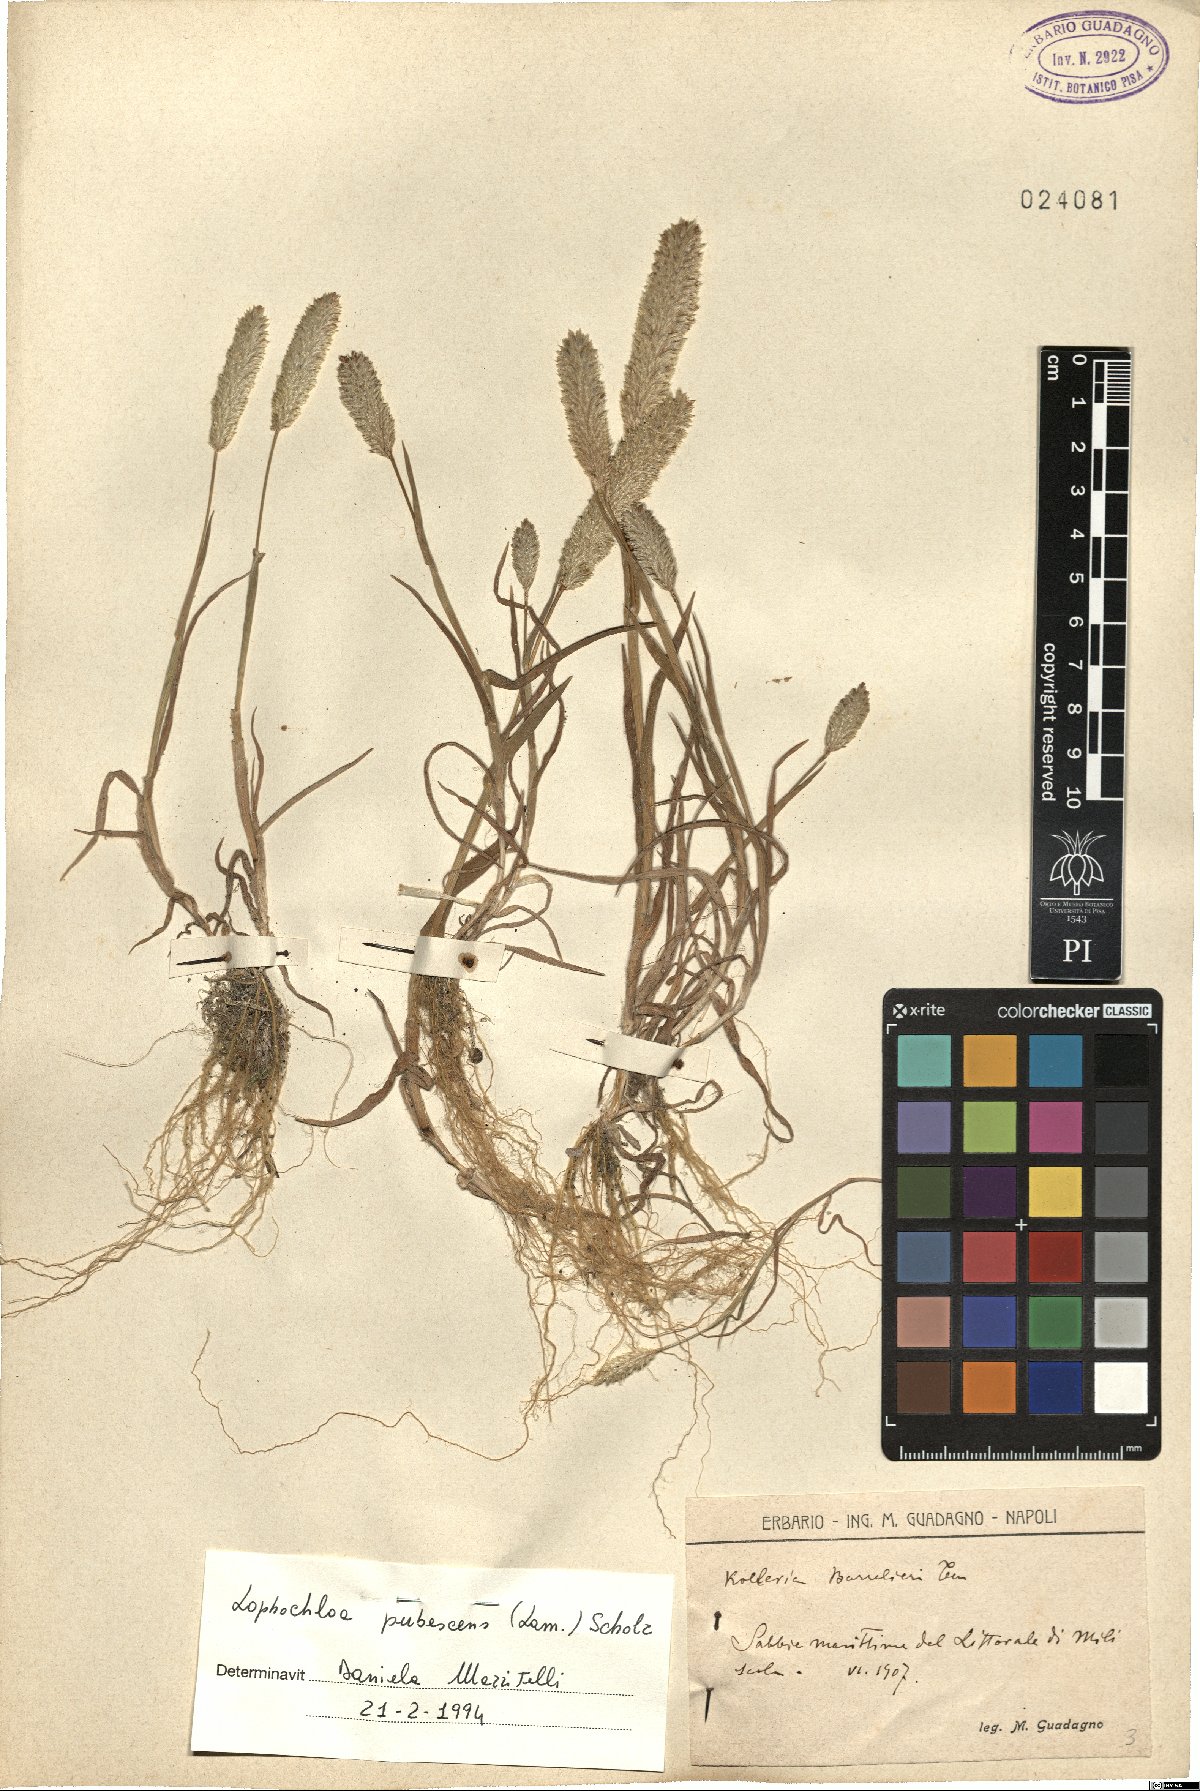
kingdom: Plantae
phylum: Tracheophyta
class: Liliopsida
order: Poales
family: Poaceae
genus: Rostraria
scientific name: Rostraria litorea
